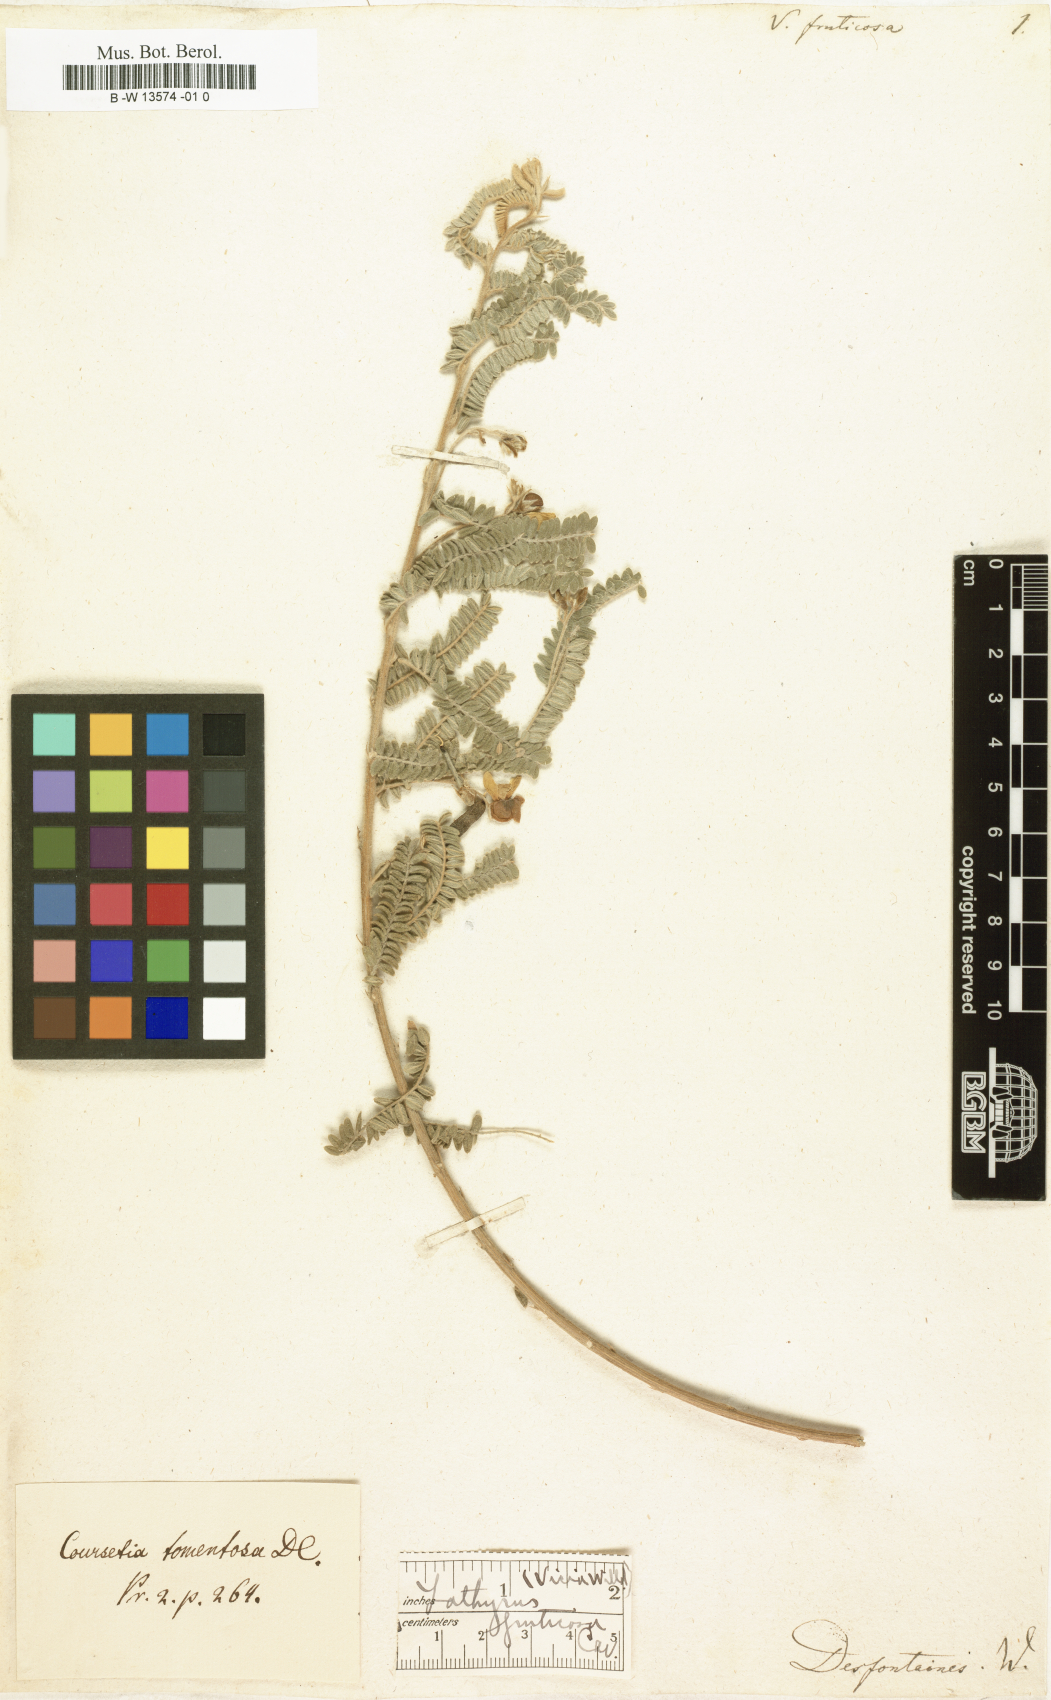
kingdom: Plantae
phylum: Tracheophyta
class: Magnoliopsida
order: Fabales
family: Fabaceae
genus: Coursetia
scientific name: Coursetia fruticosa
